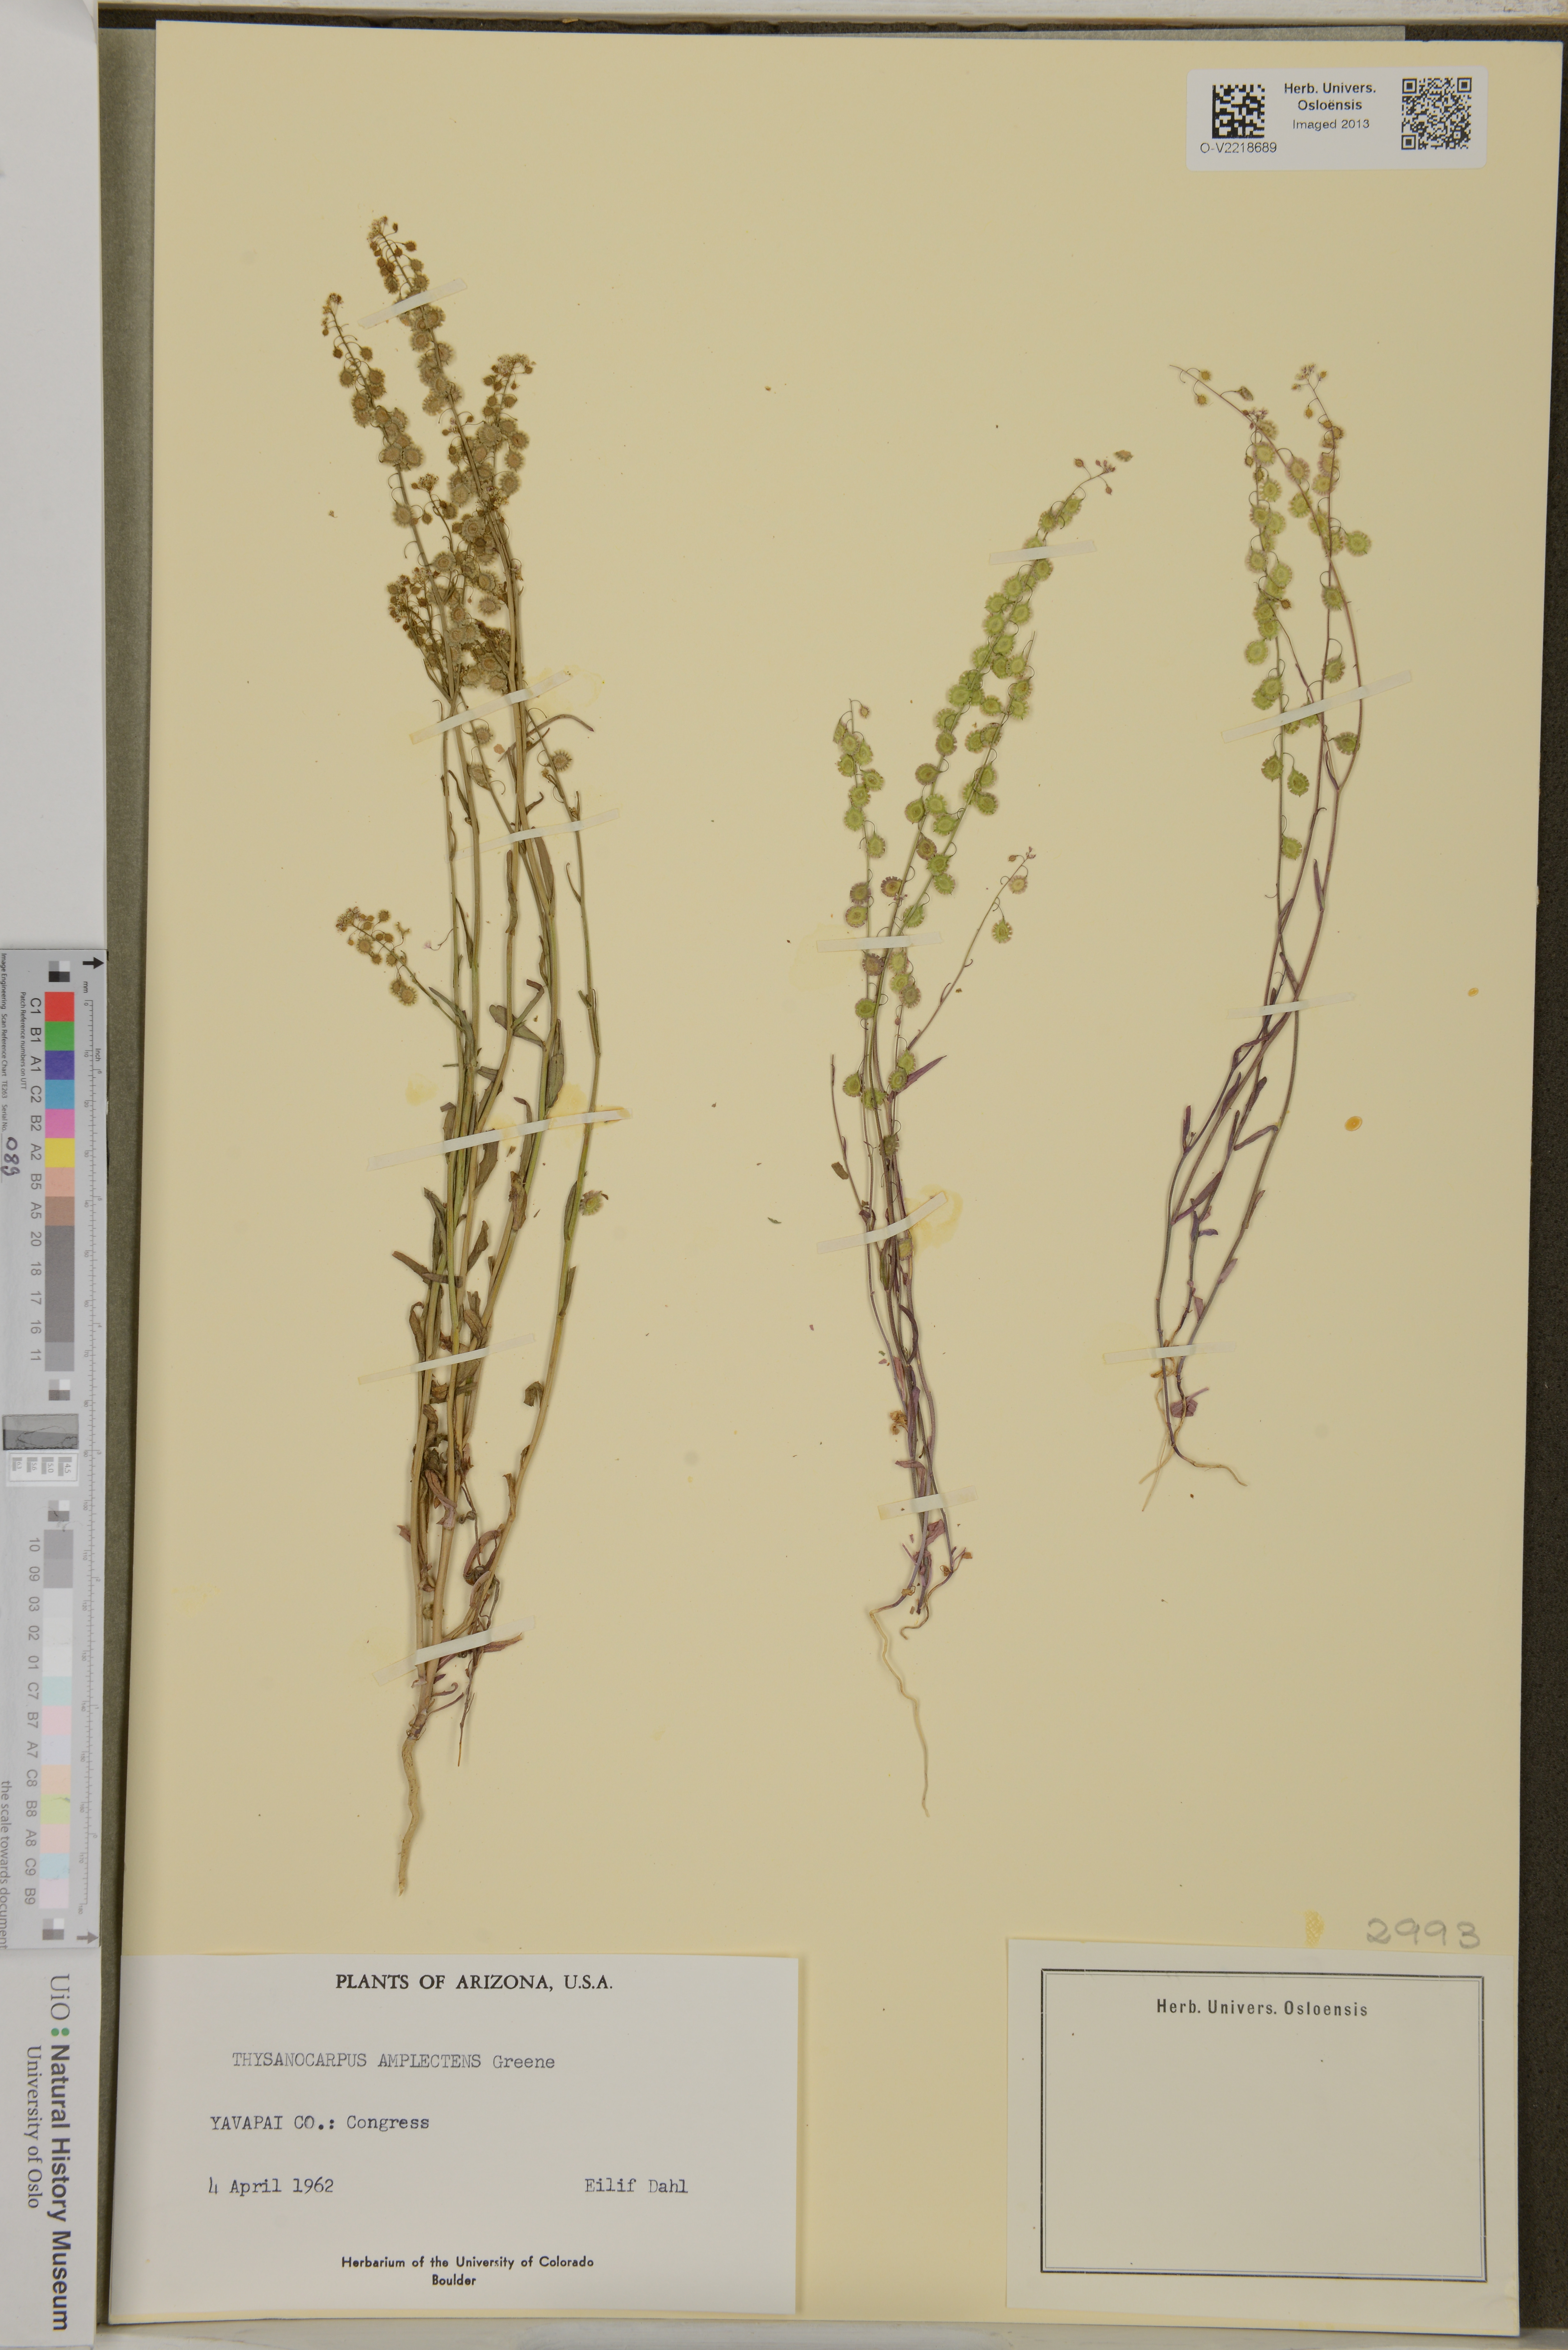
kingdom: Plantae
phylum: Tracheophyta
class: Magnoliopsida
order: Brassicales
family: Brassicaceae
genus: Thysanocarpus
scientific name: Thysanocarpus curvipes
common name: Sand fringepod
